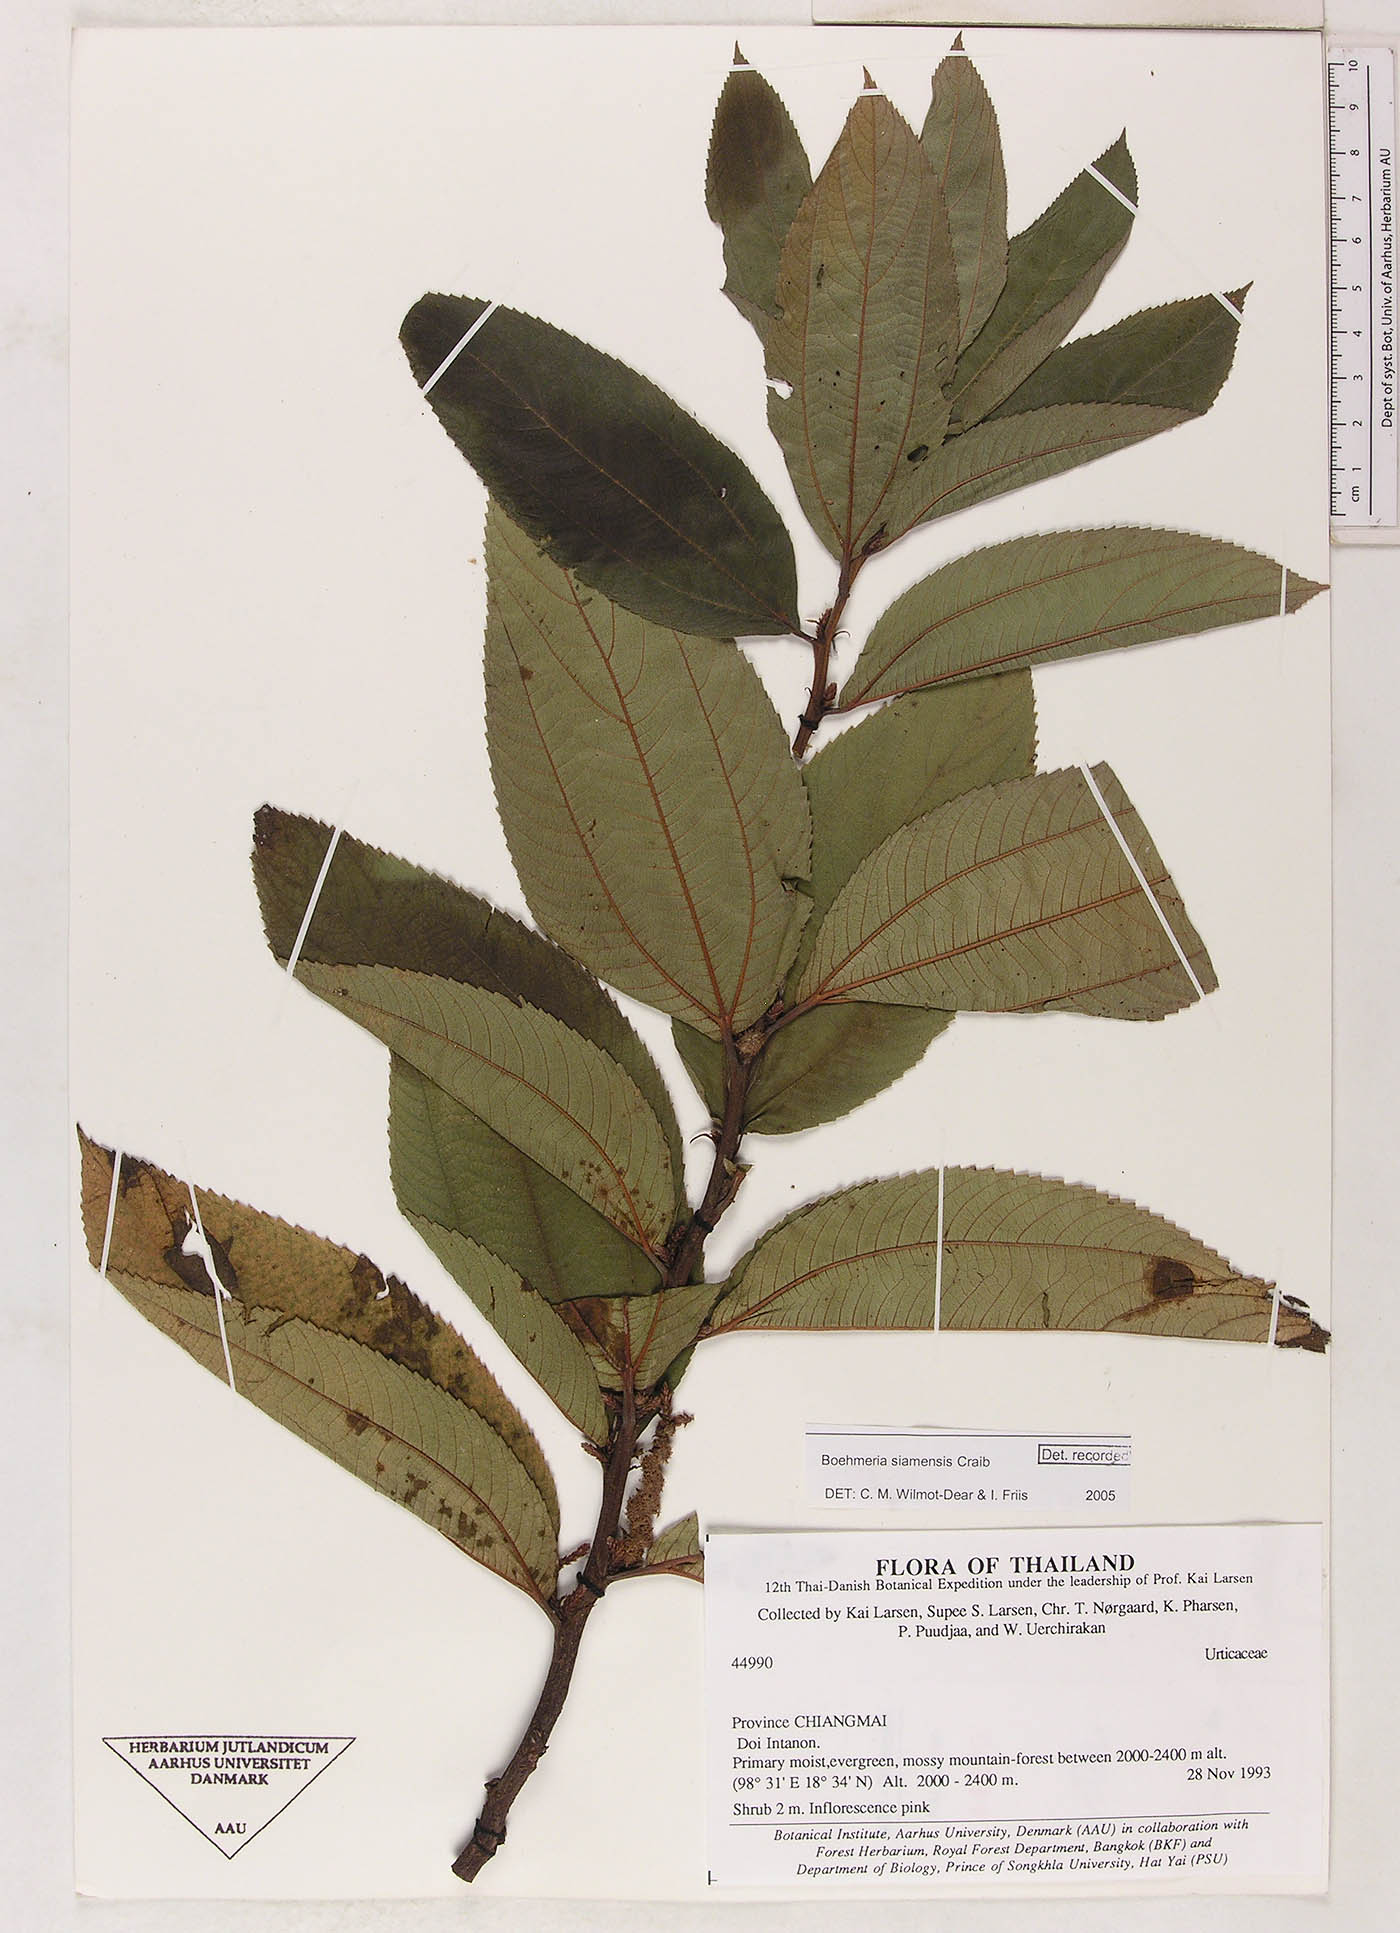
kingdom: Plantae
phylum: Tracheophyta
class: Magnoliopsida
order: Rosales
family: Urticaceae
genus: Boehmeria
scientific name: Boehmeria siamensis
